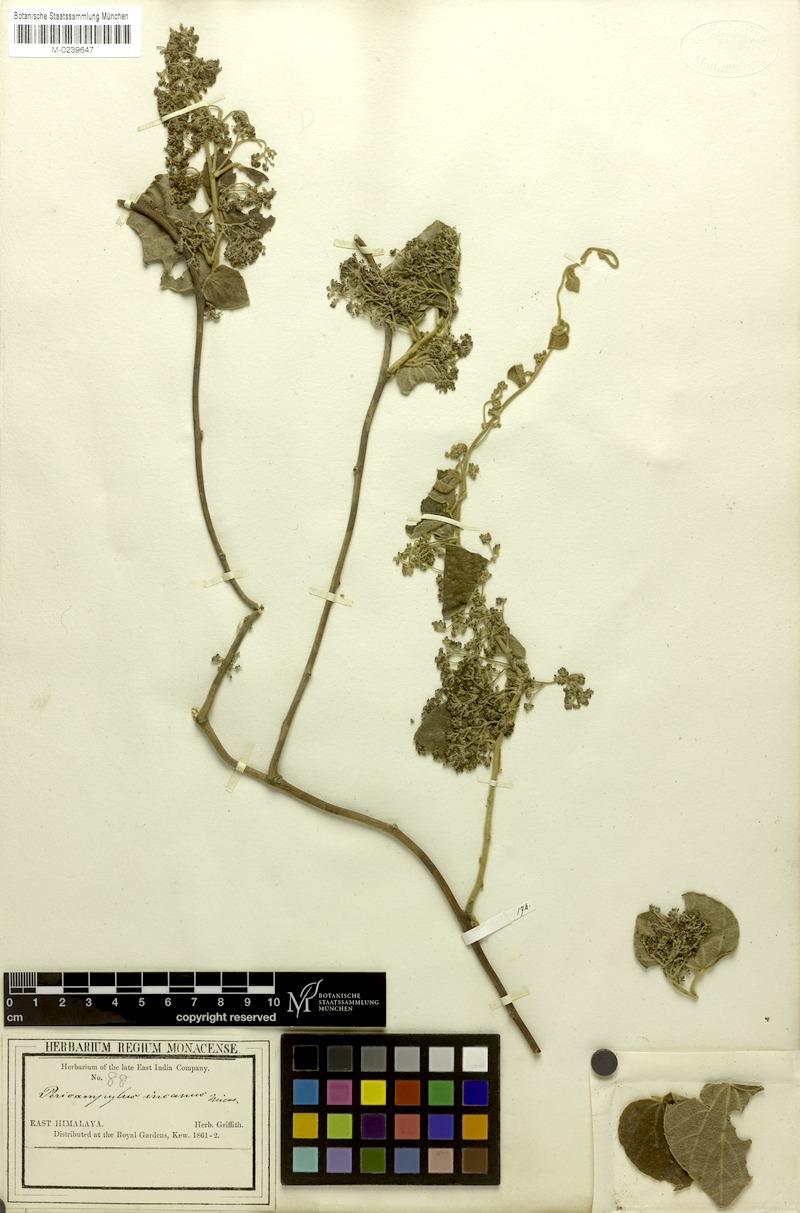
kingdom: Plantae
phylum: Tracheophyta
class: Magnoliopsida
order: Ranunculales
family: Menispermaceae
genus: Pericampylus
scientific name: Pericampylus glaucus
